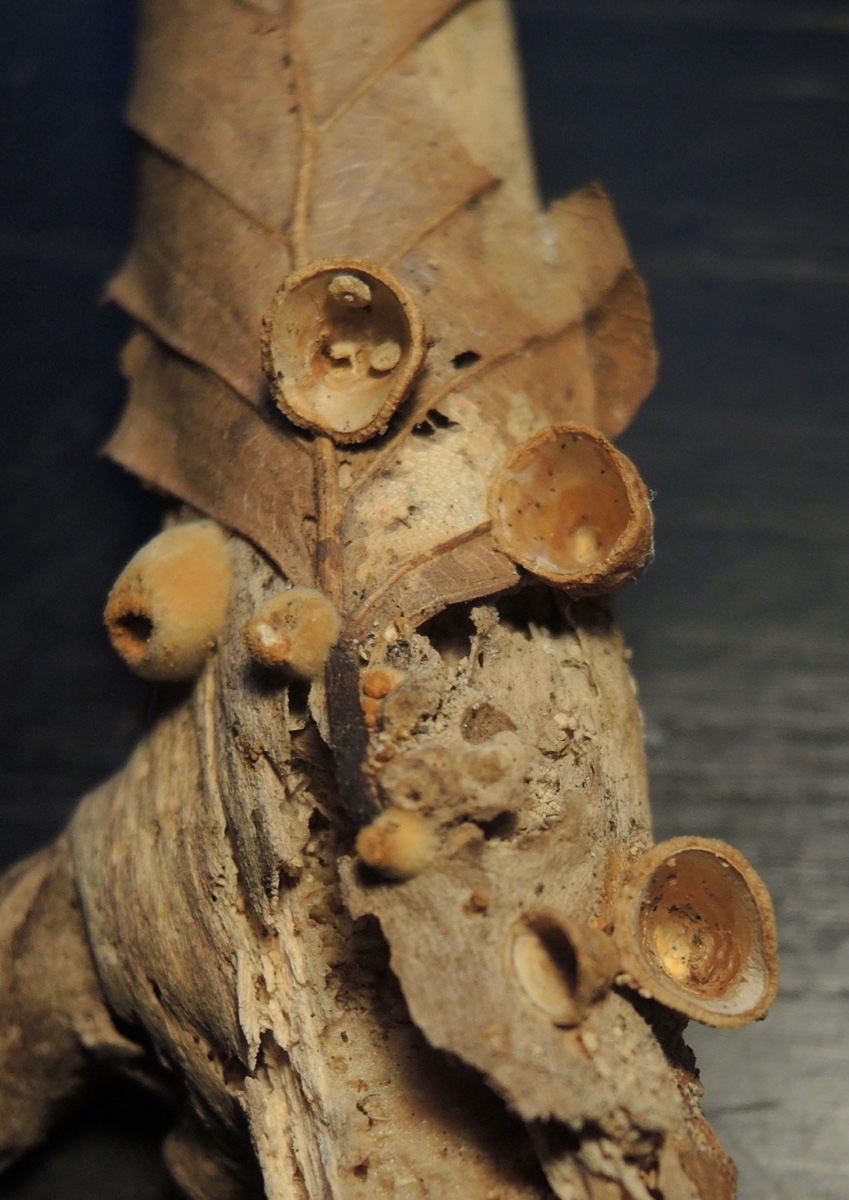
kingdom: Fungi
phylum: Basidiomycota
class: Agaricomycetes
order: Agaricales
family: Nidulariaceae
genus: Crucibulum
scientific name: Crucibulum crucibuliforme
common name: krukkesvamp
